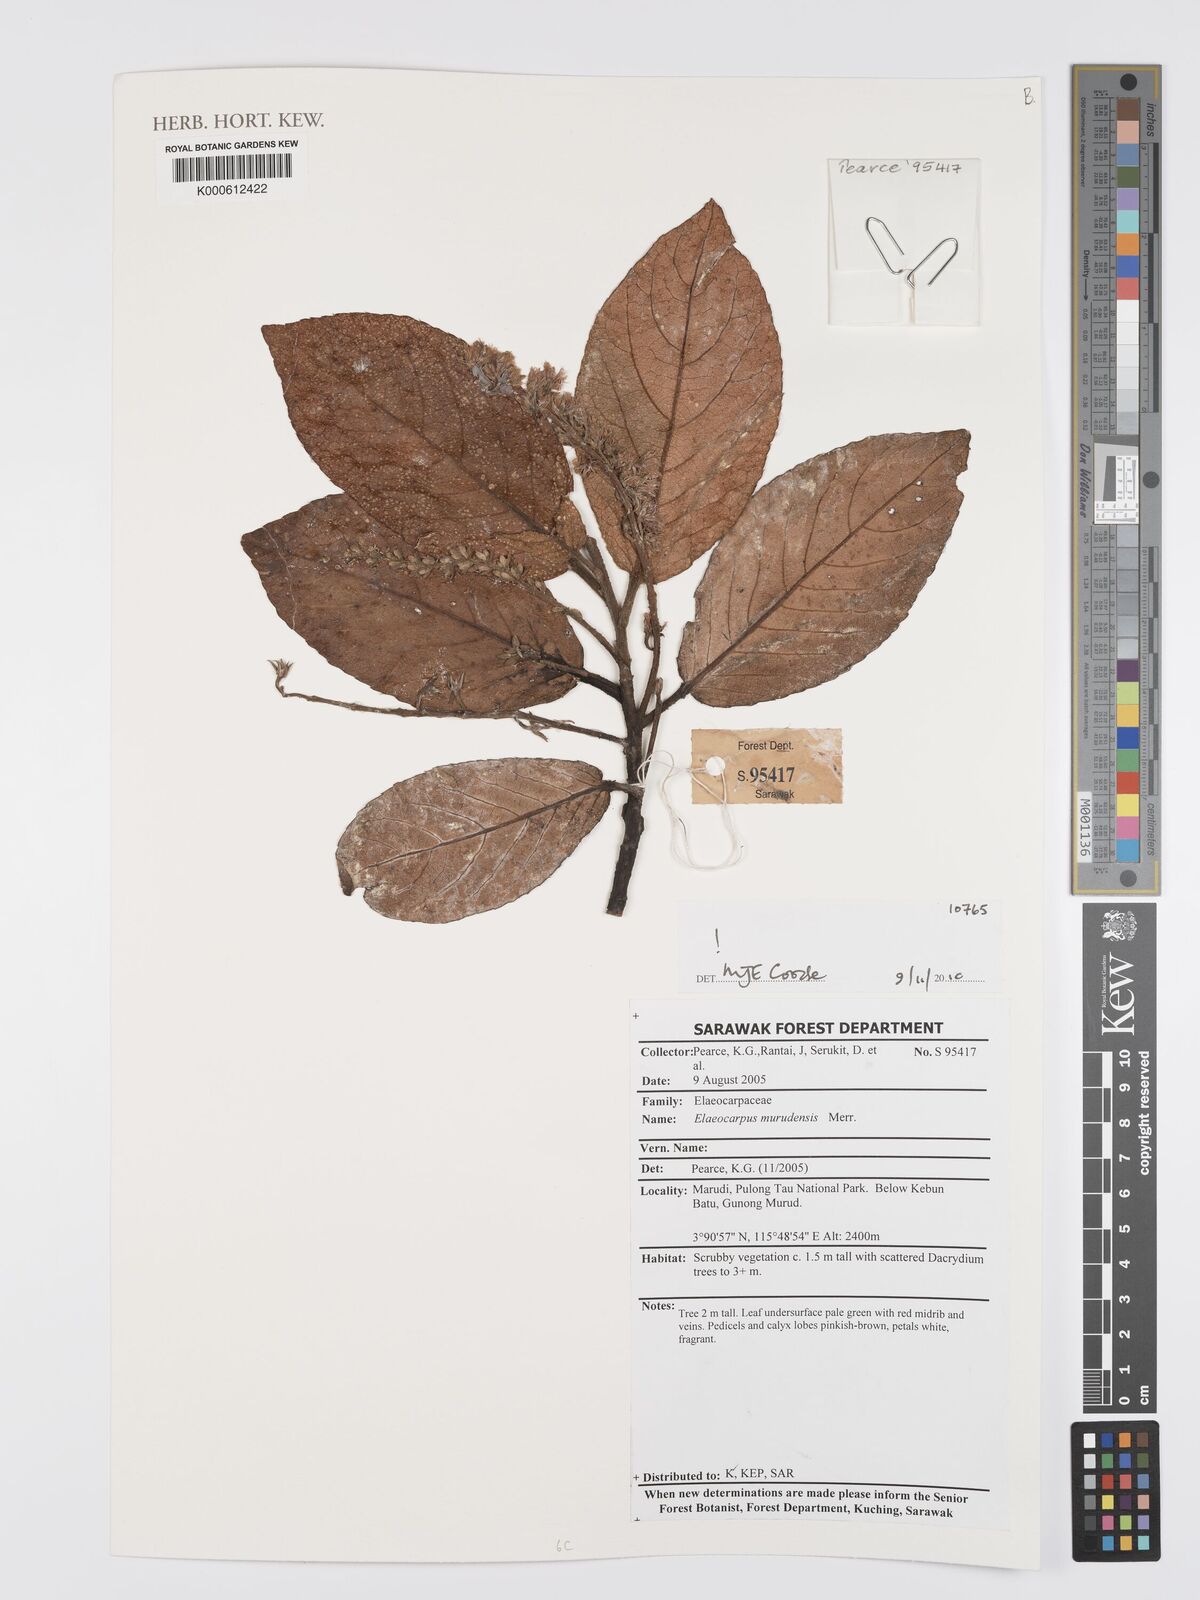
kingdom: Plantae
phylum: Tracheophyta
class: Magnoliopsida
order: Oxalidales
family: Elaeocarpaceae
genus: Elaeocarpus
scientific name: Elaeocarpus murudensis
